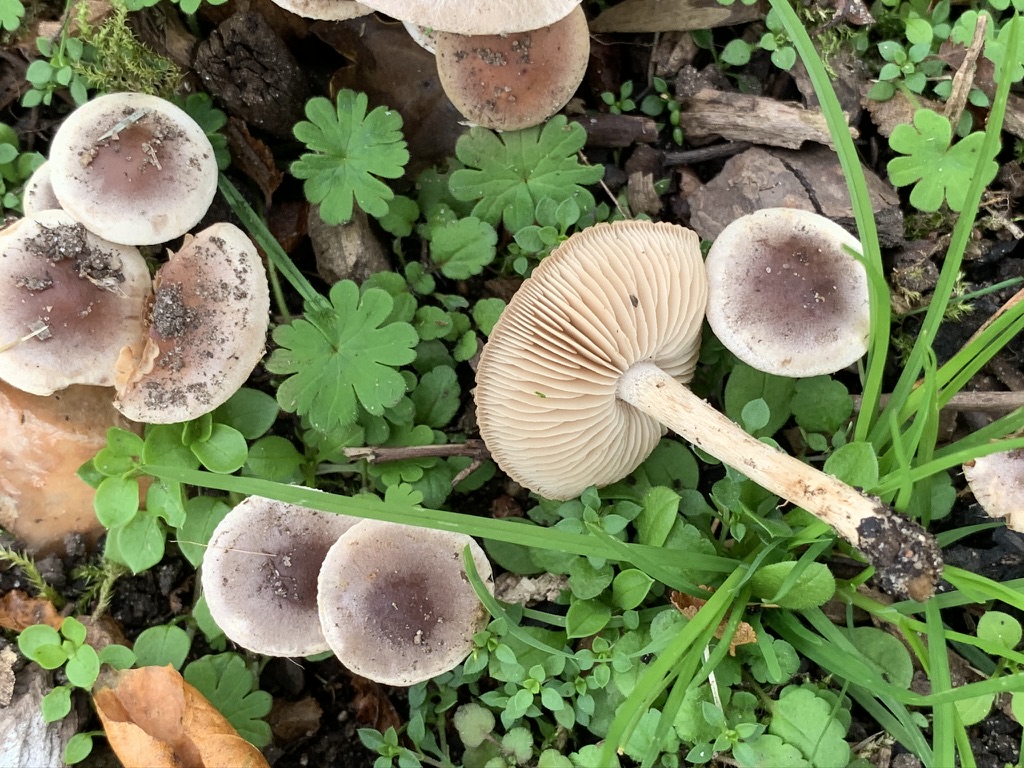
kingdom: Fungi
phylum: Basidiomycota
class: Agaricomycetes
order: Agaricales
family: Hymenogastraceae
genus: Hebeloma
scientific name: Hebeloma mesophaeum
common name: lerbrun tåreblad
